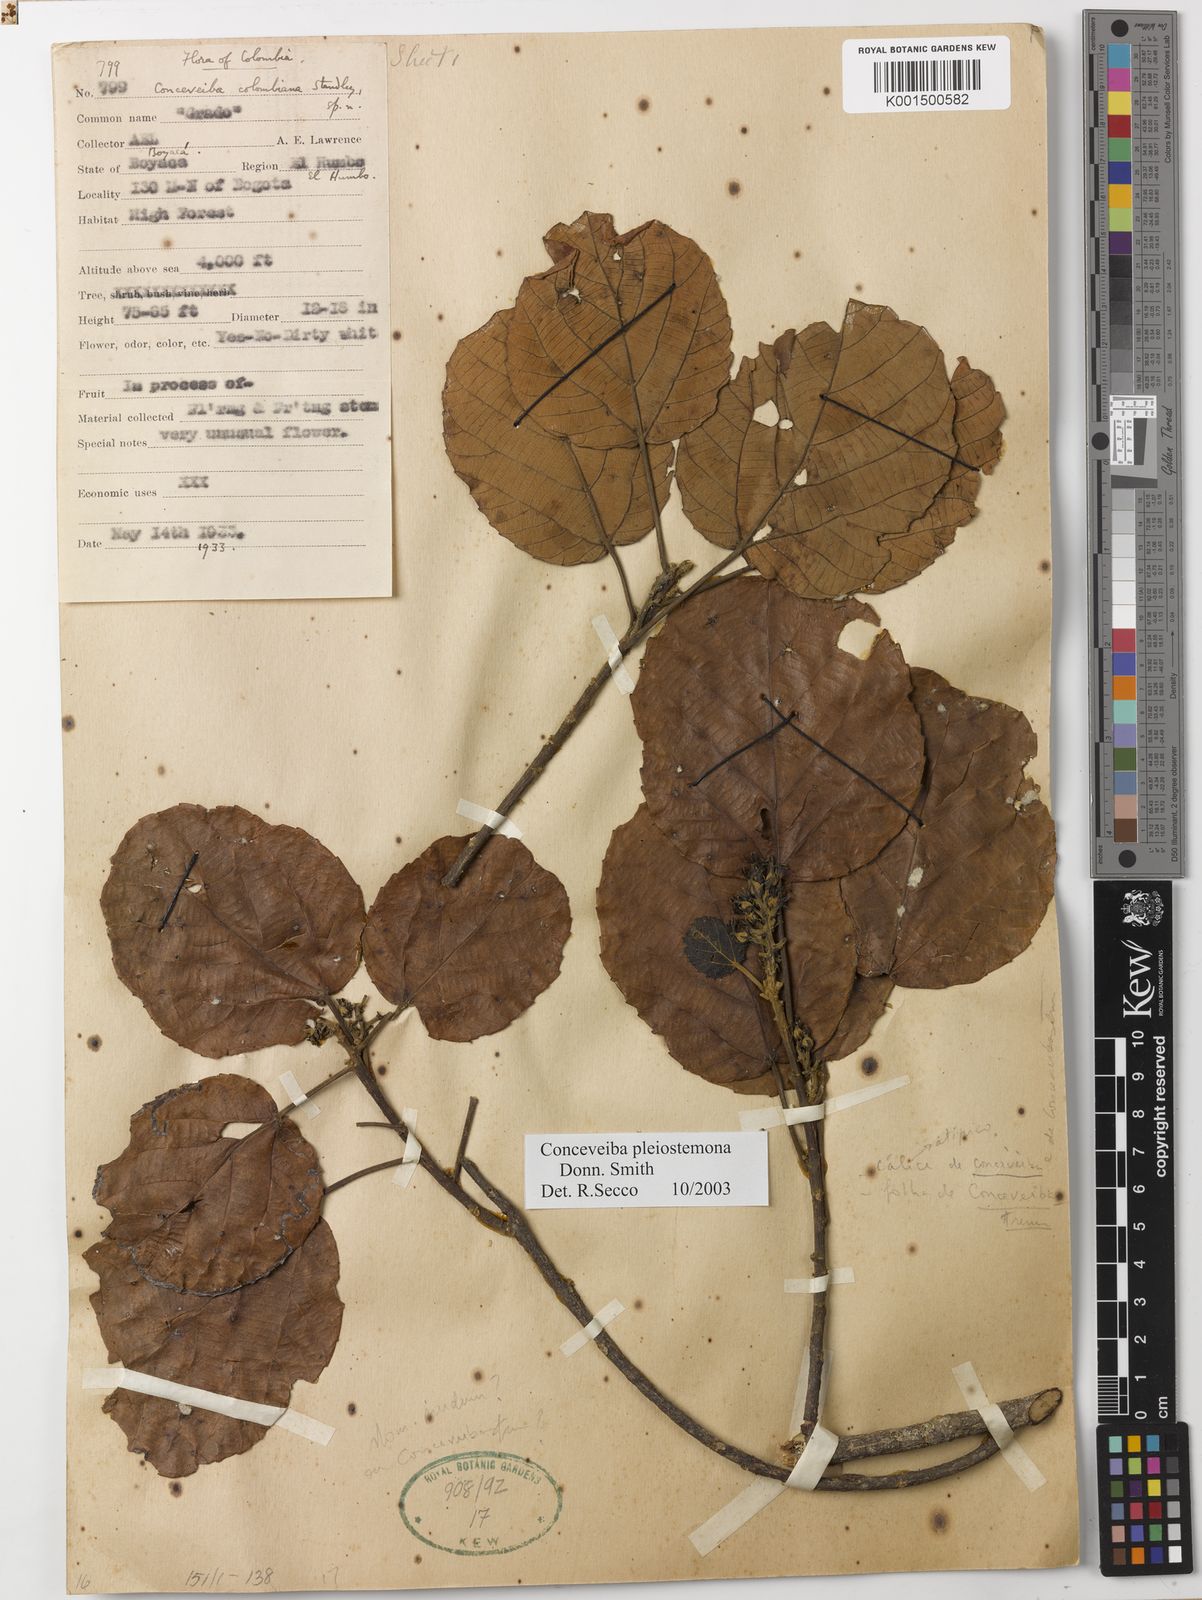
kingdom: Plantae
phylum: Tracheophyta
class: Magnoliopsida
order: Malpighiales
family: Euphorbiaceae
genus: Conceveiba
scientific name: Conceveiba pleiostemona
